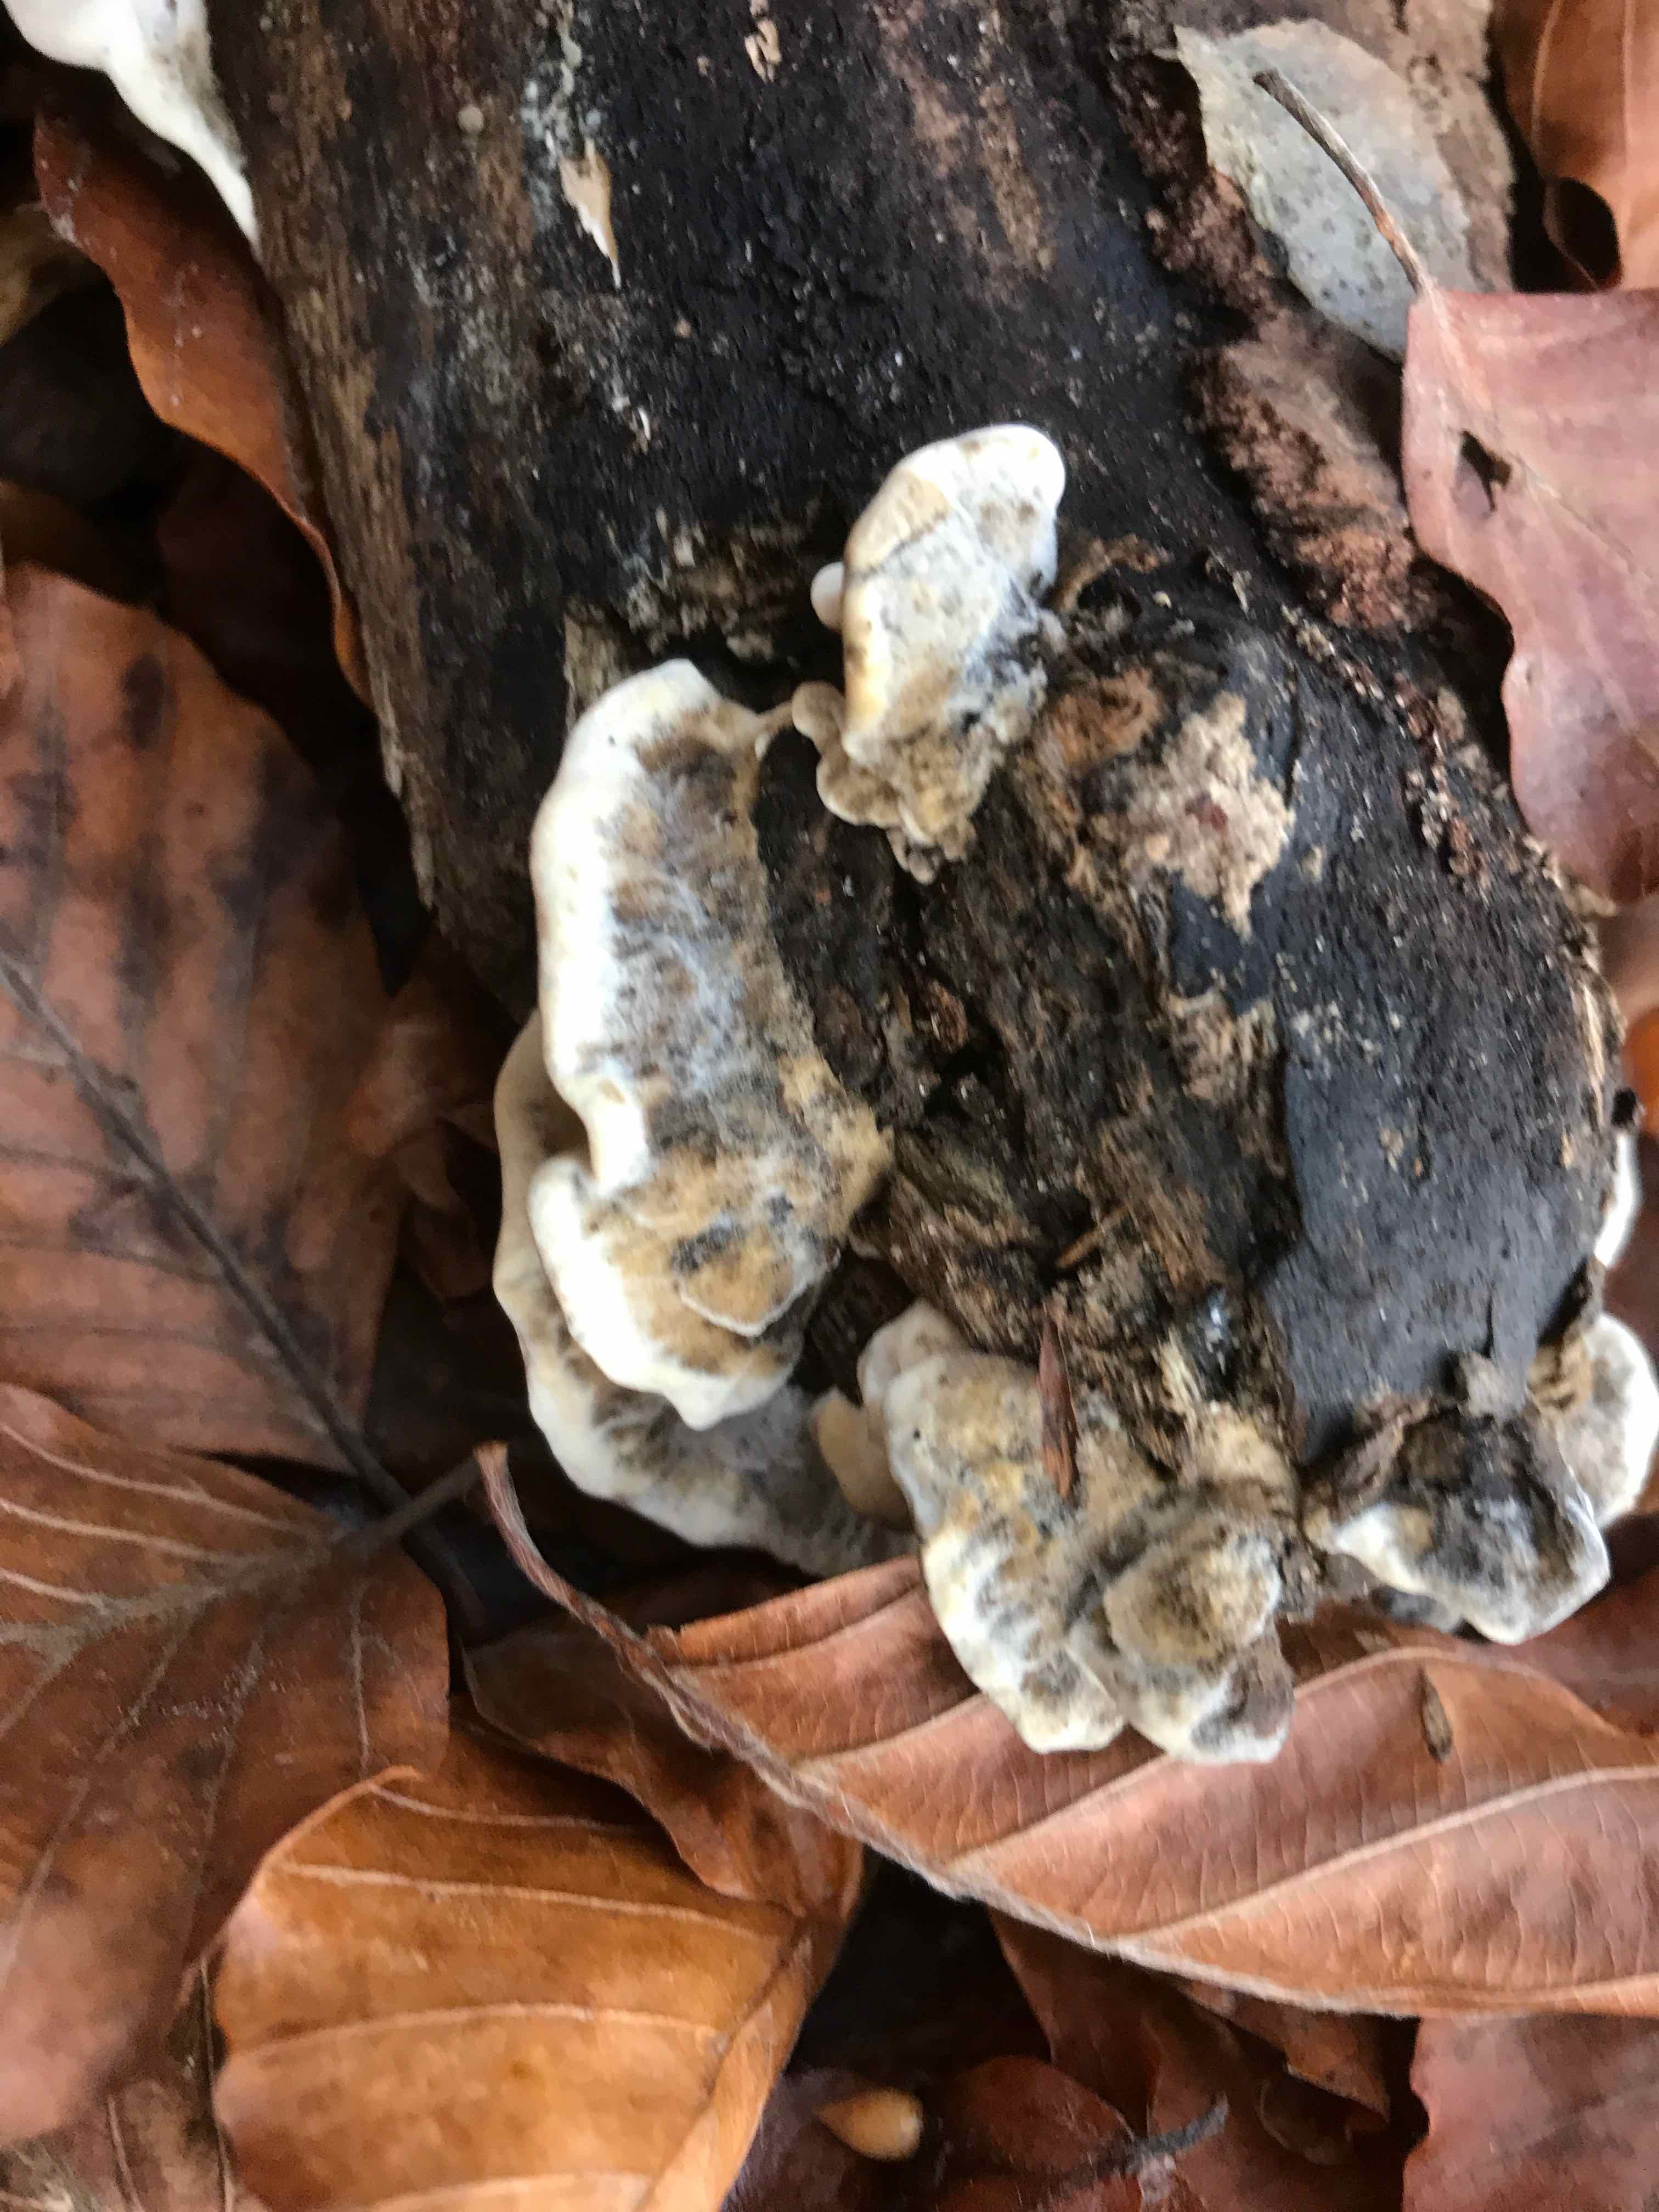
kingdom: Fungi
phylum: Basidiomycota
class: Agaricomycetes
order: Polyporales
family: Polyporaceae
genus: Trametes
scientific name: Trametes versicolor
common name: broget læderporesvamp
